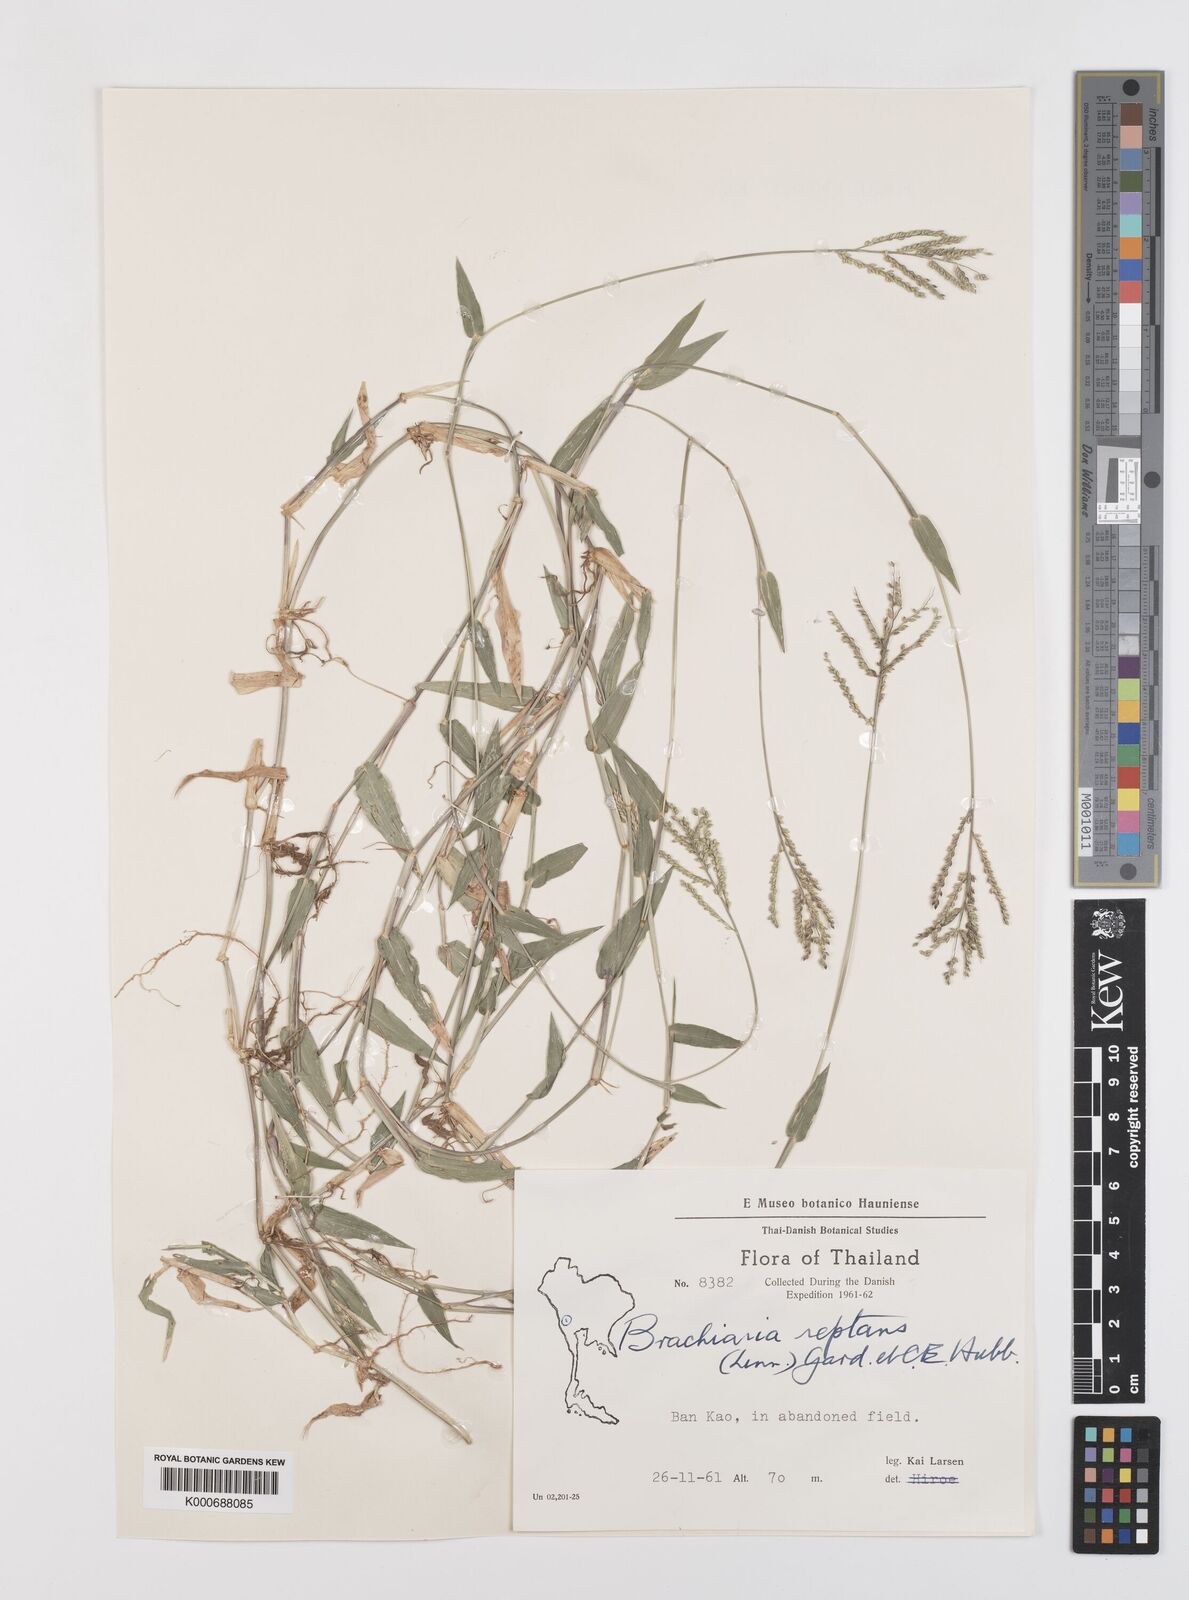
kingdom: Plantae
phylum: Tracheophyta
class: Liliopsida
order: Poales
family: Poaceae
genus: Urochloa
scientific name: Urochloa reptans
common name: Sprawling signalgrass
